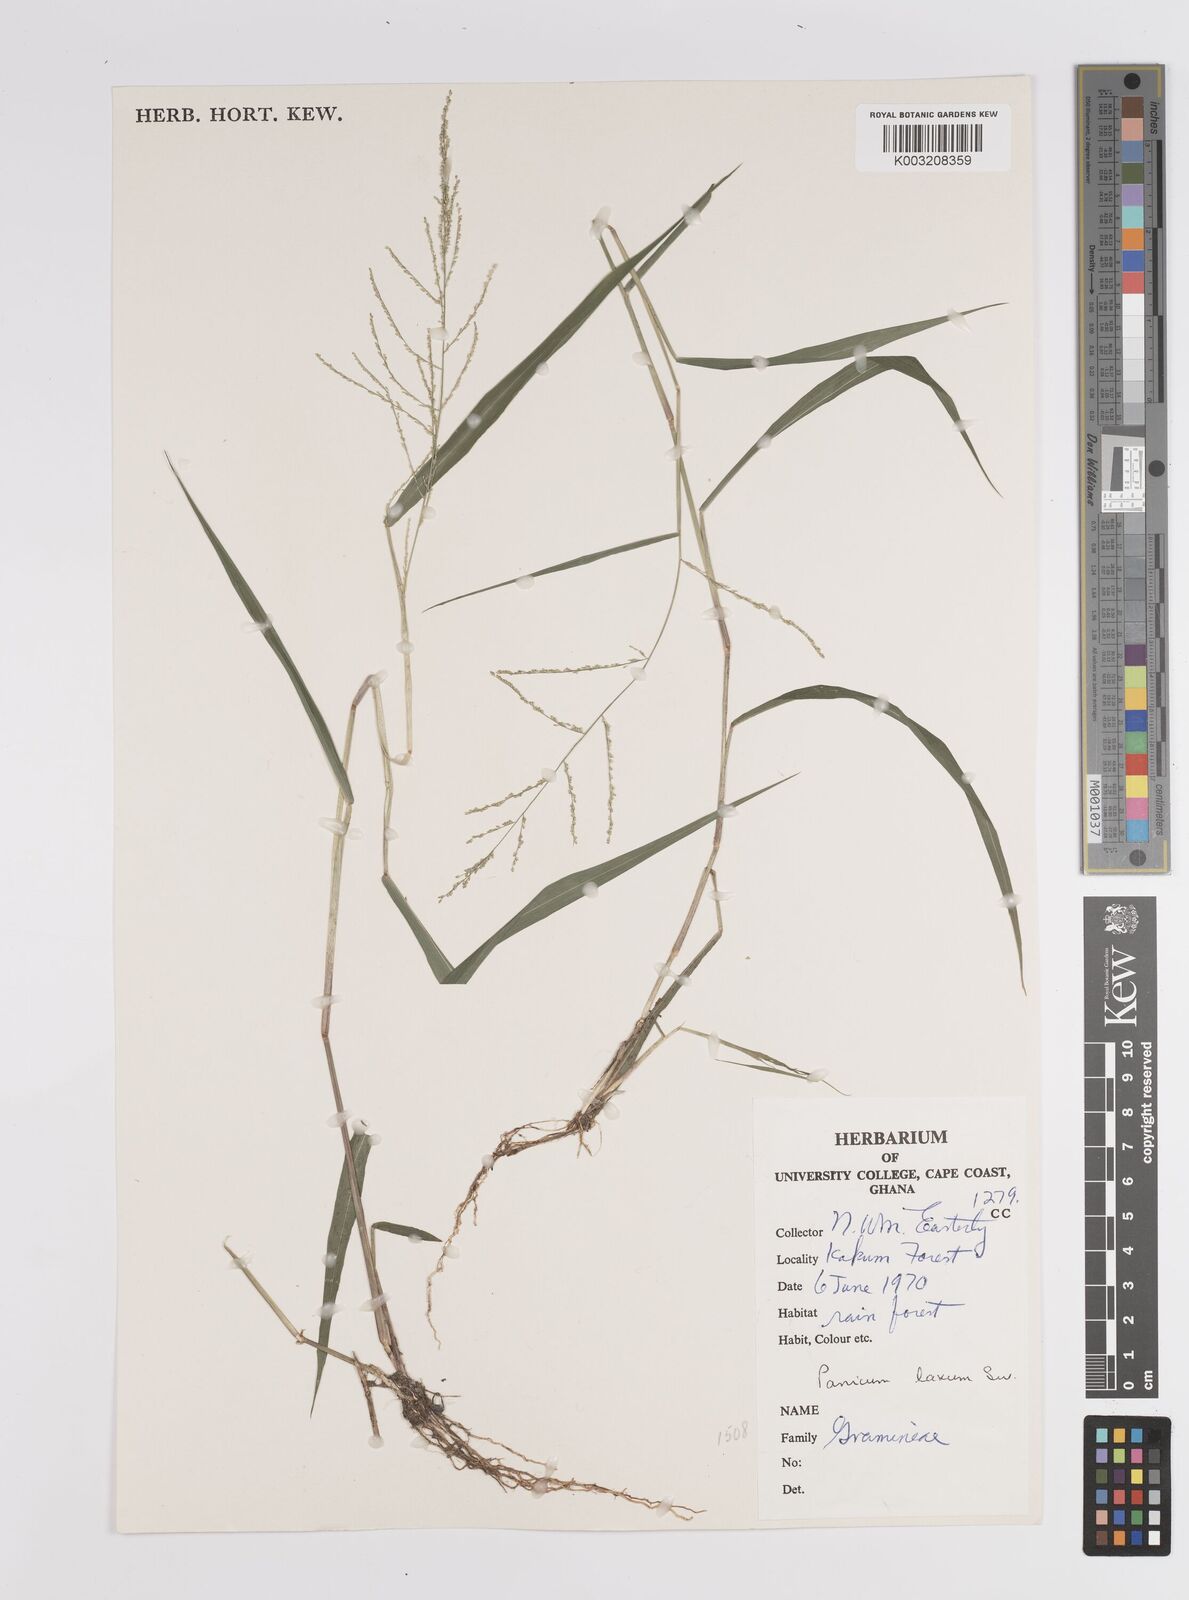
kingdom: Plantae
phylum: Tracheophyta
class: Liliopsida
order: Poales
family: Poaceae
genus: Steinchisma
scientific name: Steinchisma laxum
